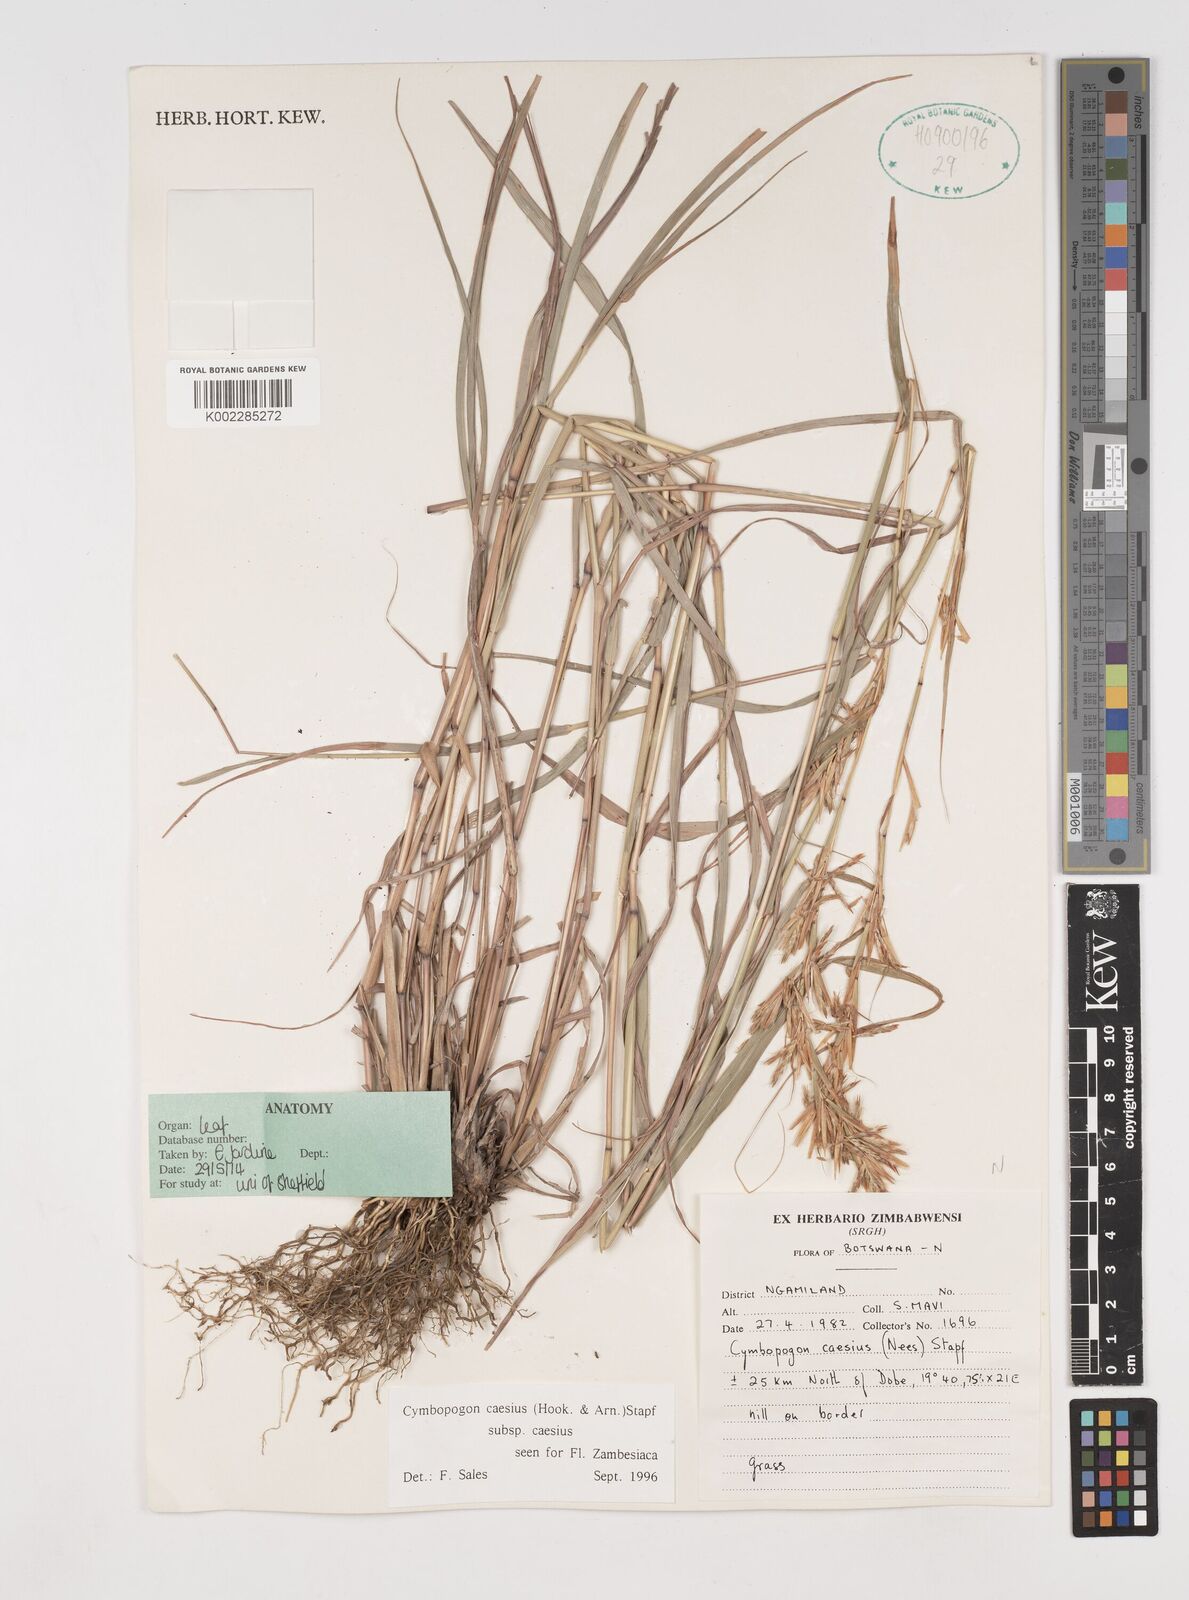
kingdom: Plantae
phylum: Tracheophyta
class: Liliopsida
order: Poales
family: Poaceae
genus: Cymbopogon
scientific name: Cymbopogon caesius
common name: Kachi grass
